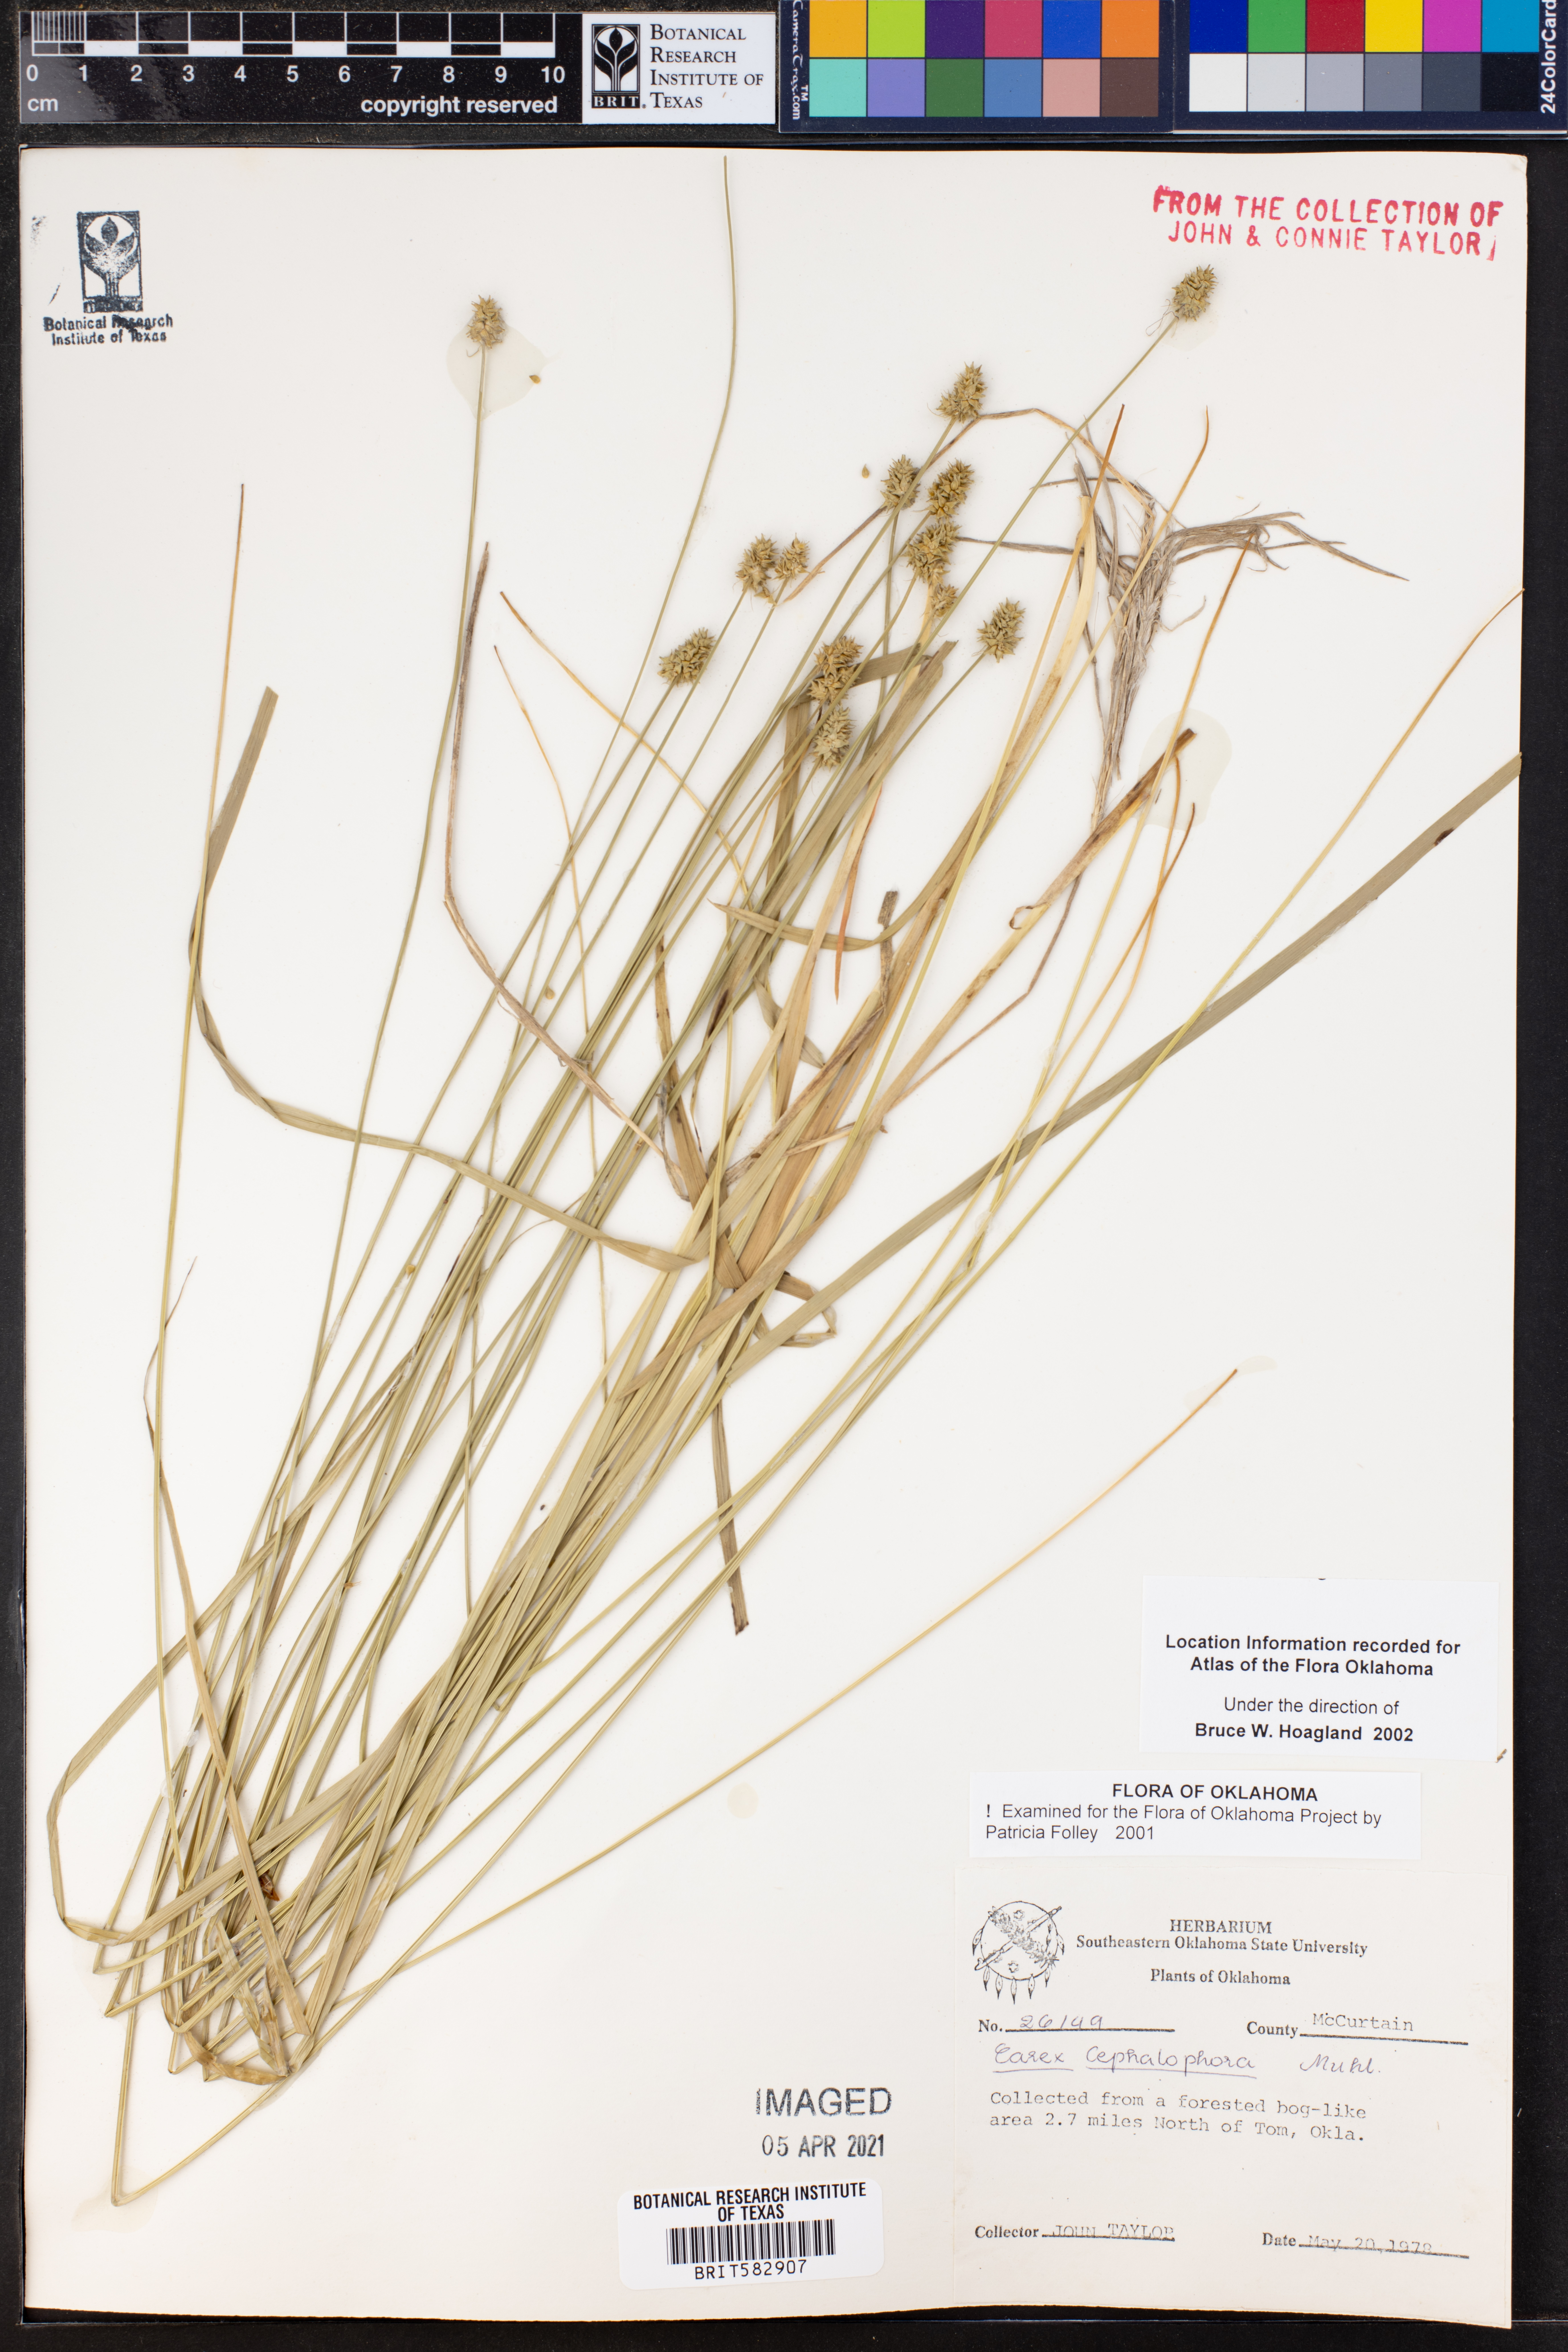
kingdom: Plantae
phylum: Tracheophyta
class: Liliopsida
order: Poales
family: Cyperaceae
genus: Carex
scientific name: Carex cephalophora
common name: Oval-headed sedge
